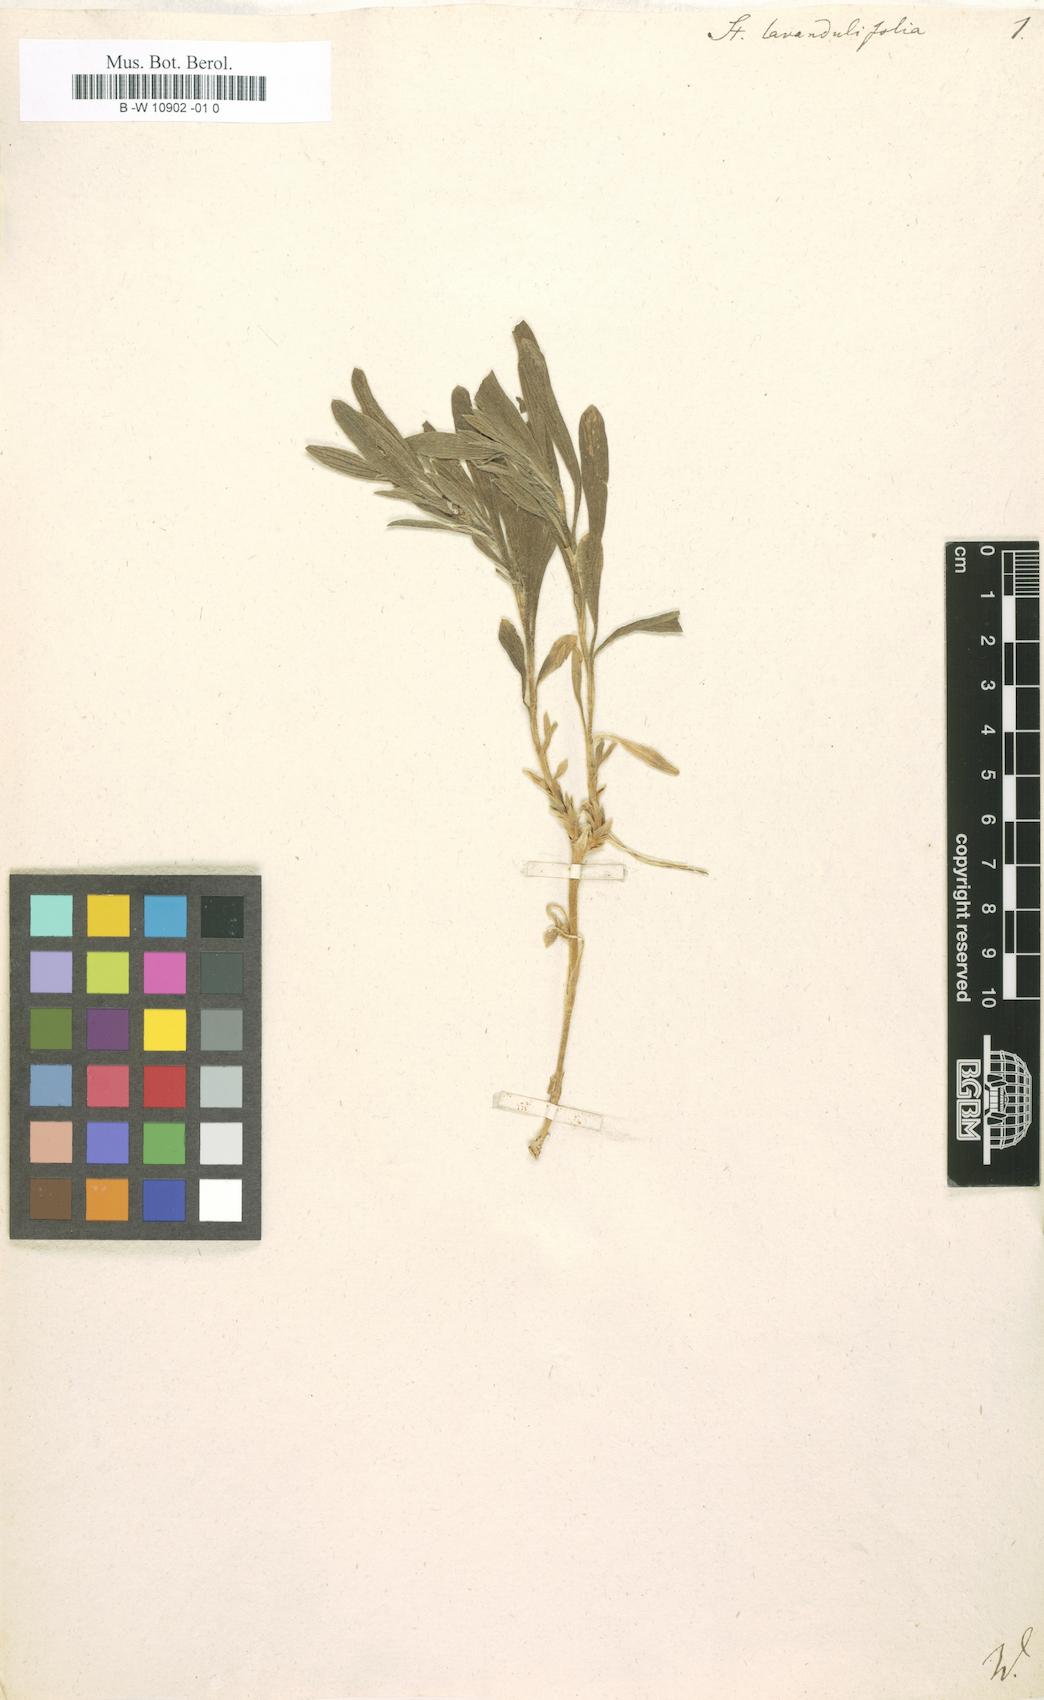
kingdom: Plantae
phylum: Tracheophyta
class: Magnoliopsida
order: Lamiales
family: Lamiaceae
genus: Stachys
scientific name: Stachys lavandulifolia
